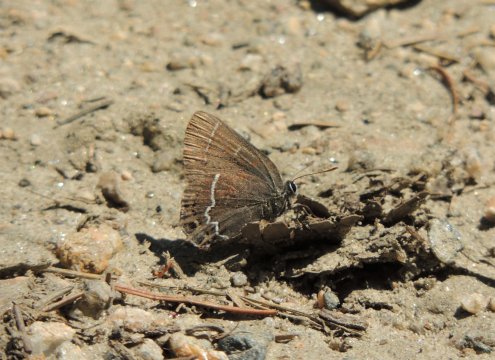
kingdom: Animalia
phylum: Arthropoda
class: Insecta
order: Lepidoptera
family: Lycaenidae
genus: Mitoura
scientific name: Mitoura spinetorum
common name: Thicket Hairstreak
